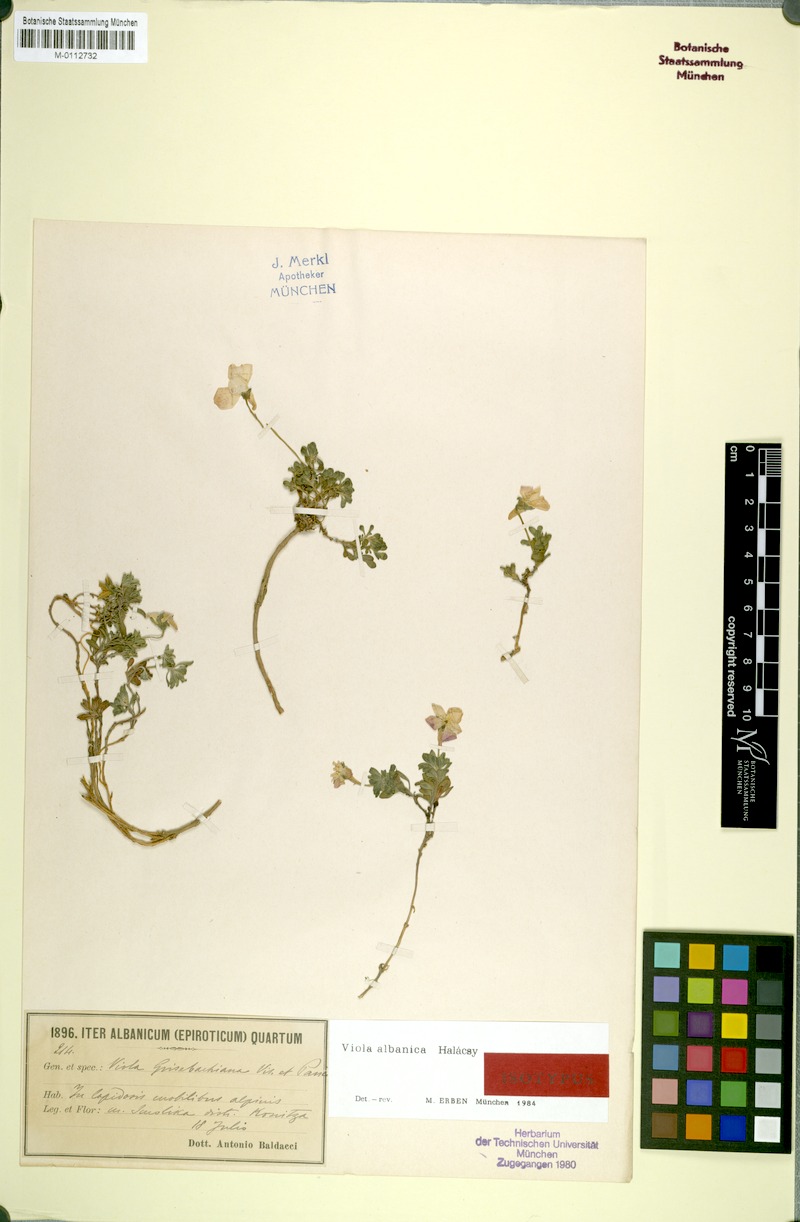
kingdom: Plantae
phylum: Tracheophyta
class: Magnoliopsida
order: Malpighiales
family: Violaceae
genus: Viola
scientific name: Viola albanica
